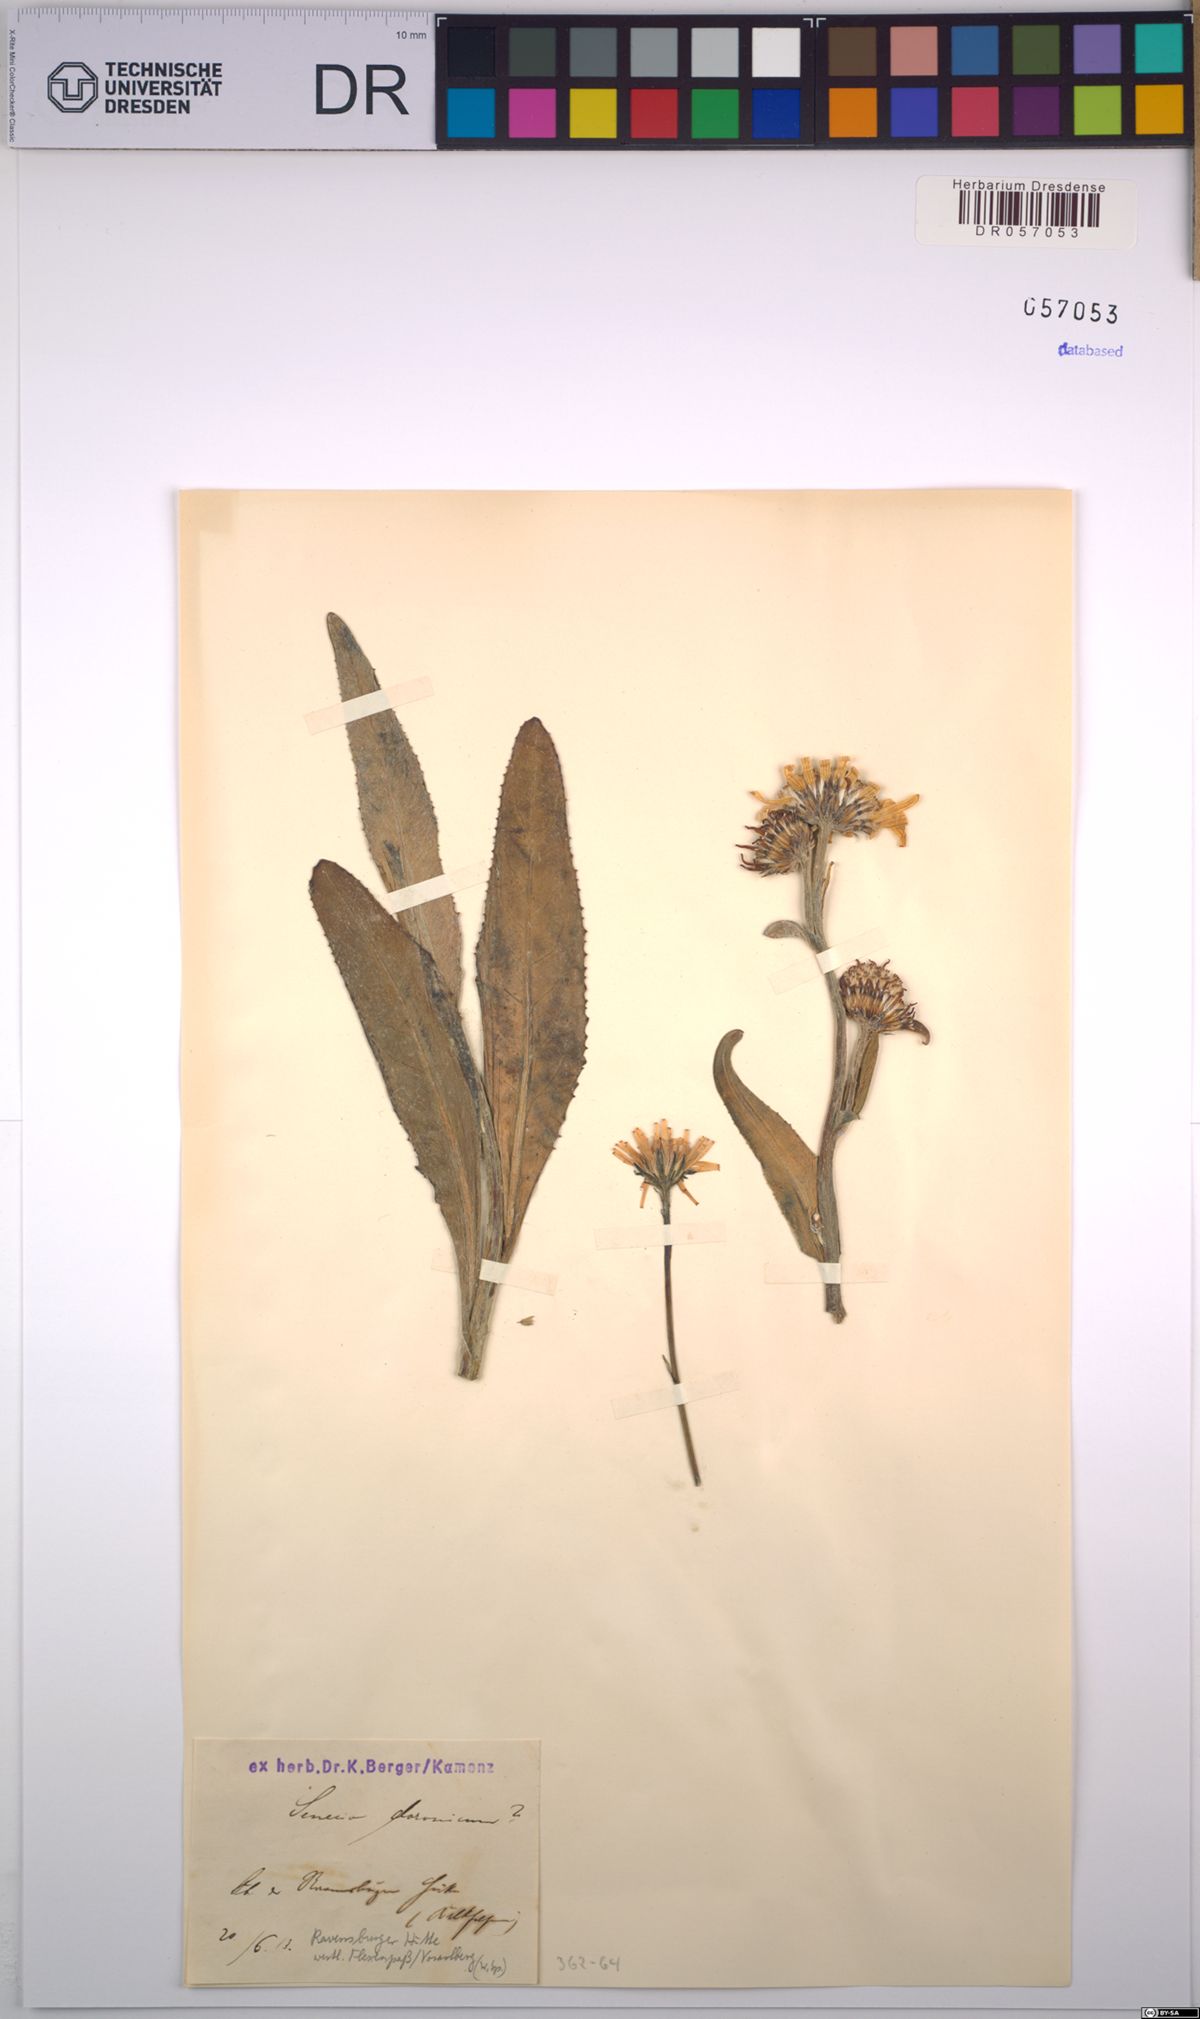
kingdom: Plantae
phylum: Tracheophyta
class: Magnoliopsida
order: Asterales
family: Asteraceae
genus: Senecio
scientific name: Senecio doronicum
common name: Chamois ragwort
